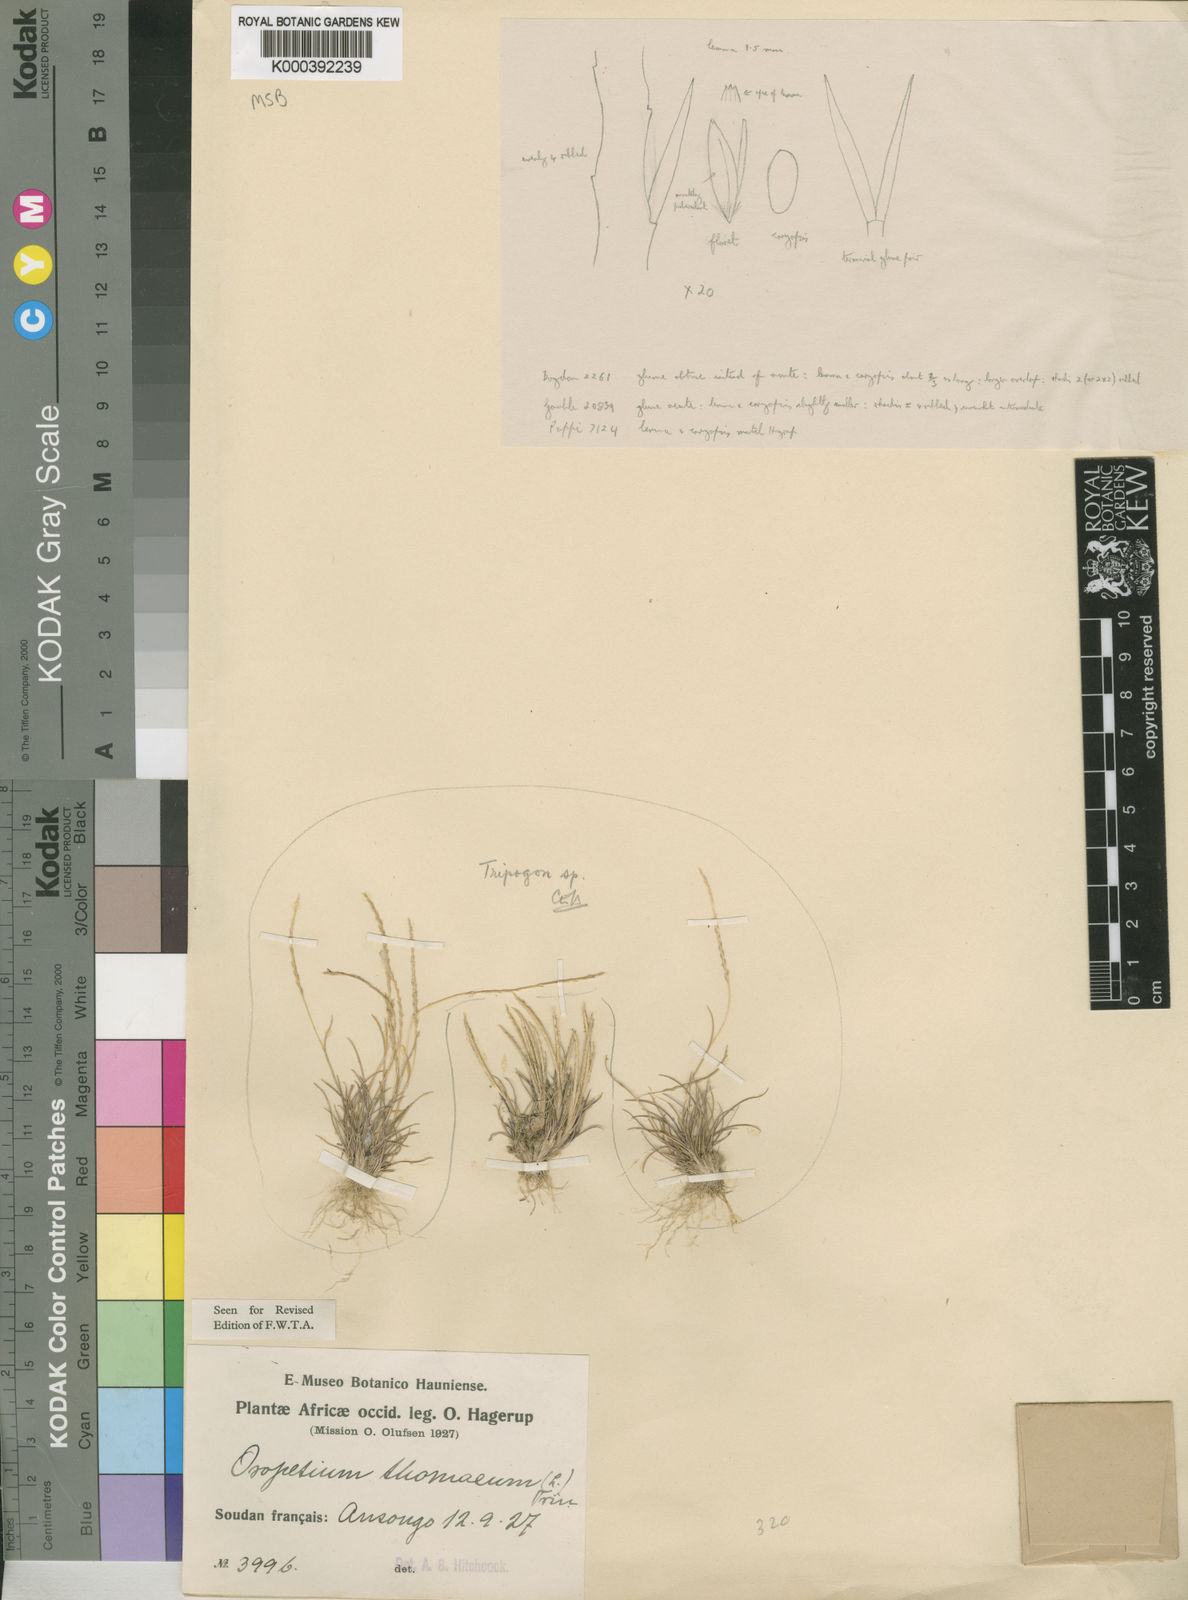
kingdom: Plantae
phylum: Tracheophyta
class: Liliopsida
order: Poales
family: Poaceae
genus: Oropetium
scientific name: Oropetium capense
